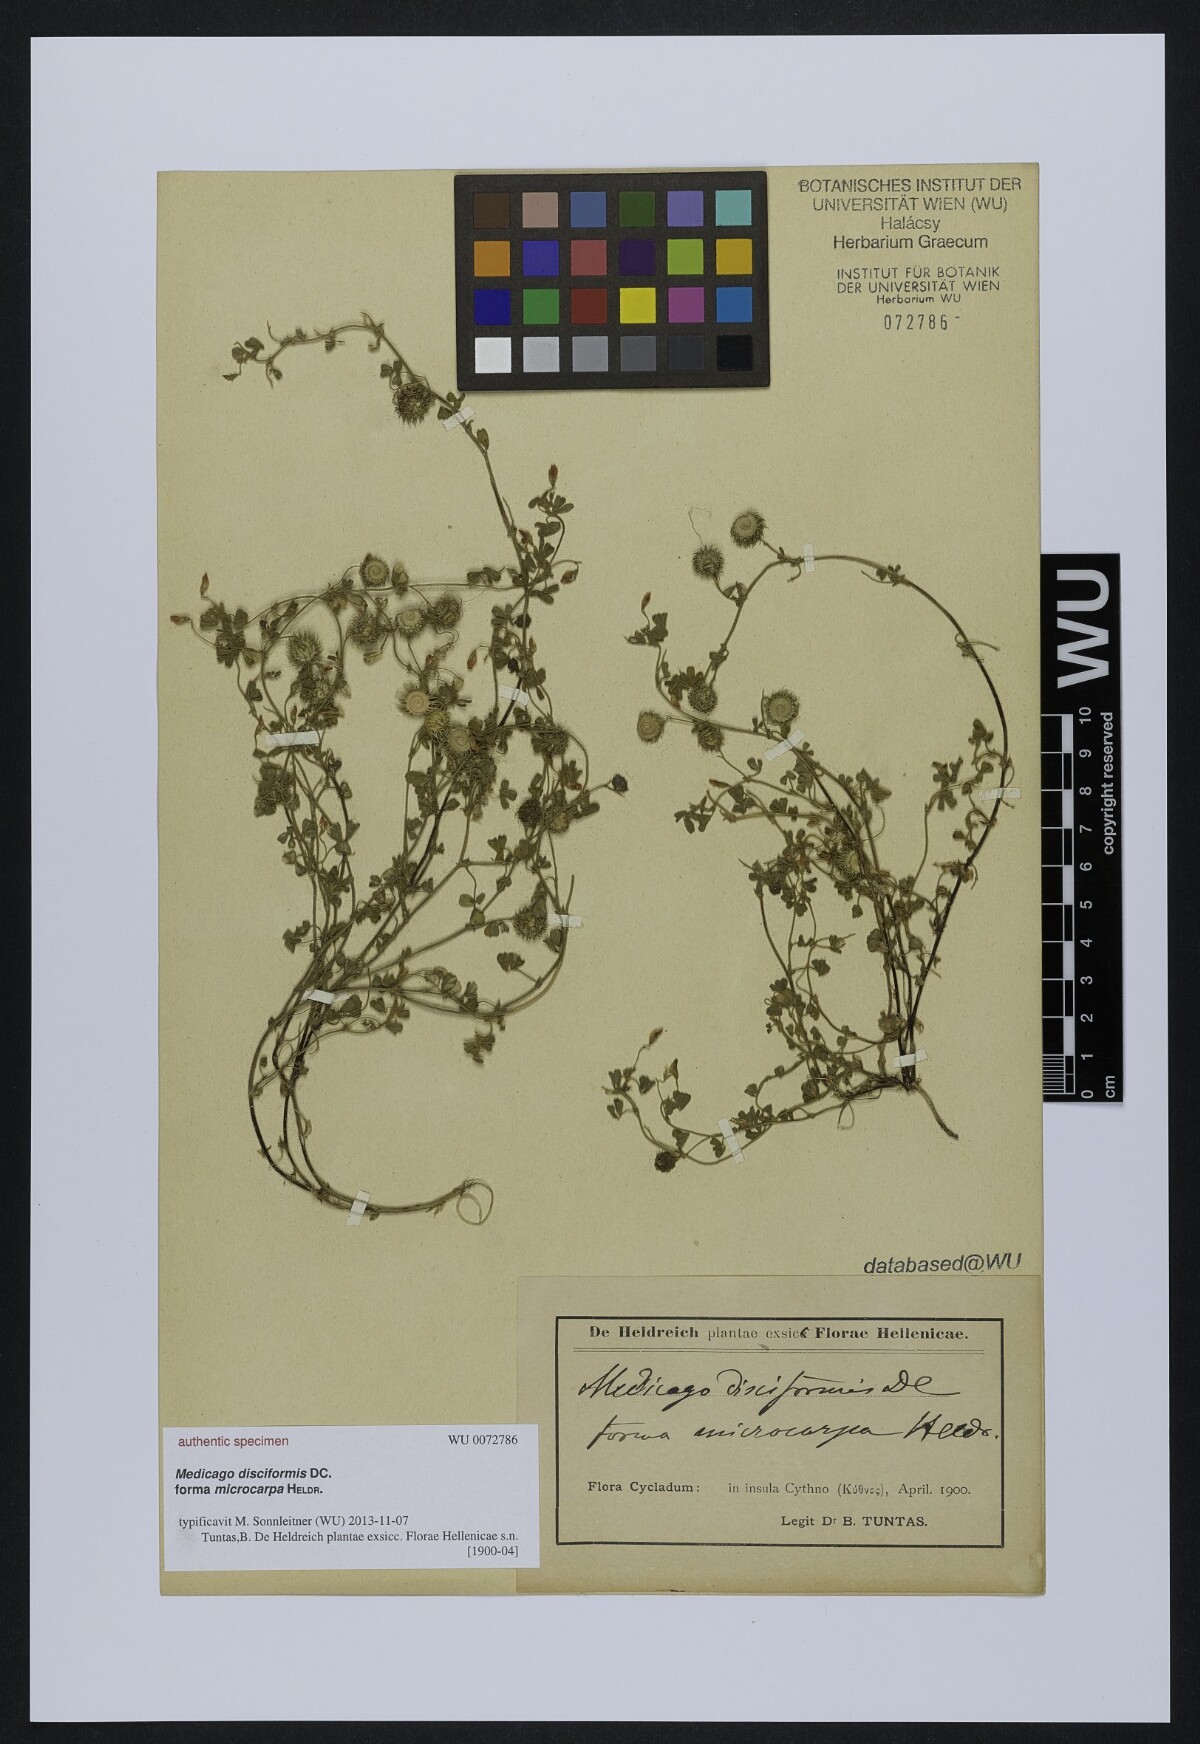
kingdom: Plantae
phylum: Tracheophyta
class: Magnoliopsida
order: Fabales
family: Fabaceae
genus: Medicago
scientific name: Medicago disciformis
